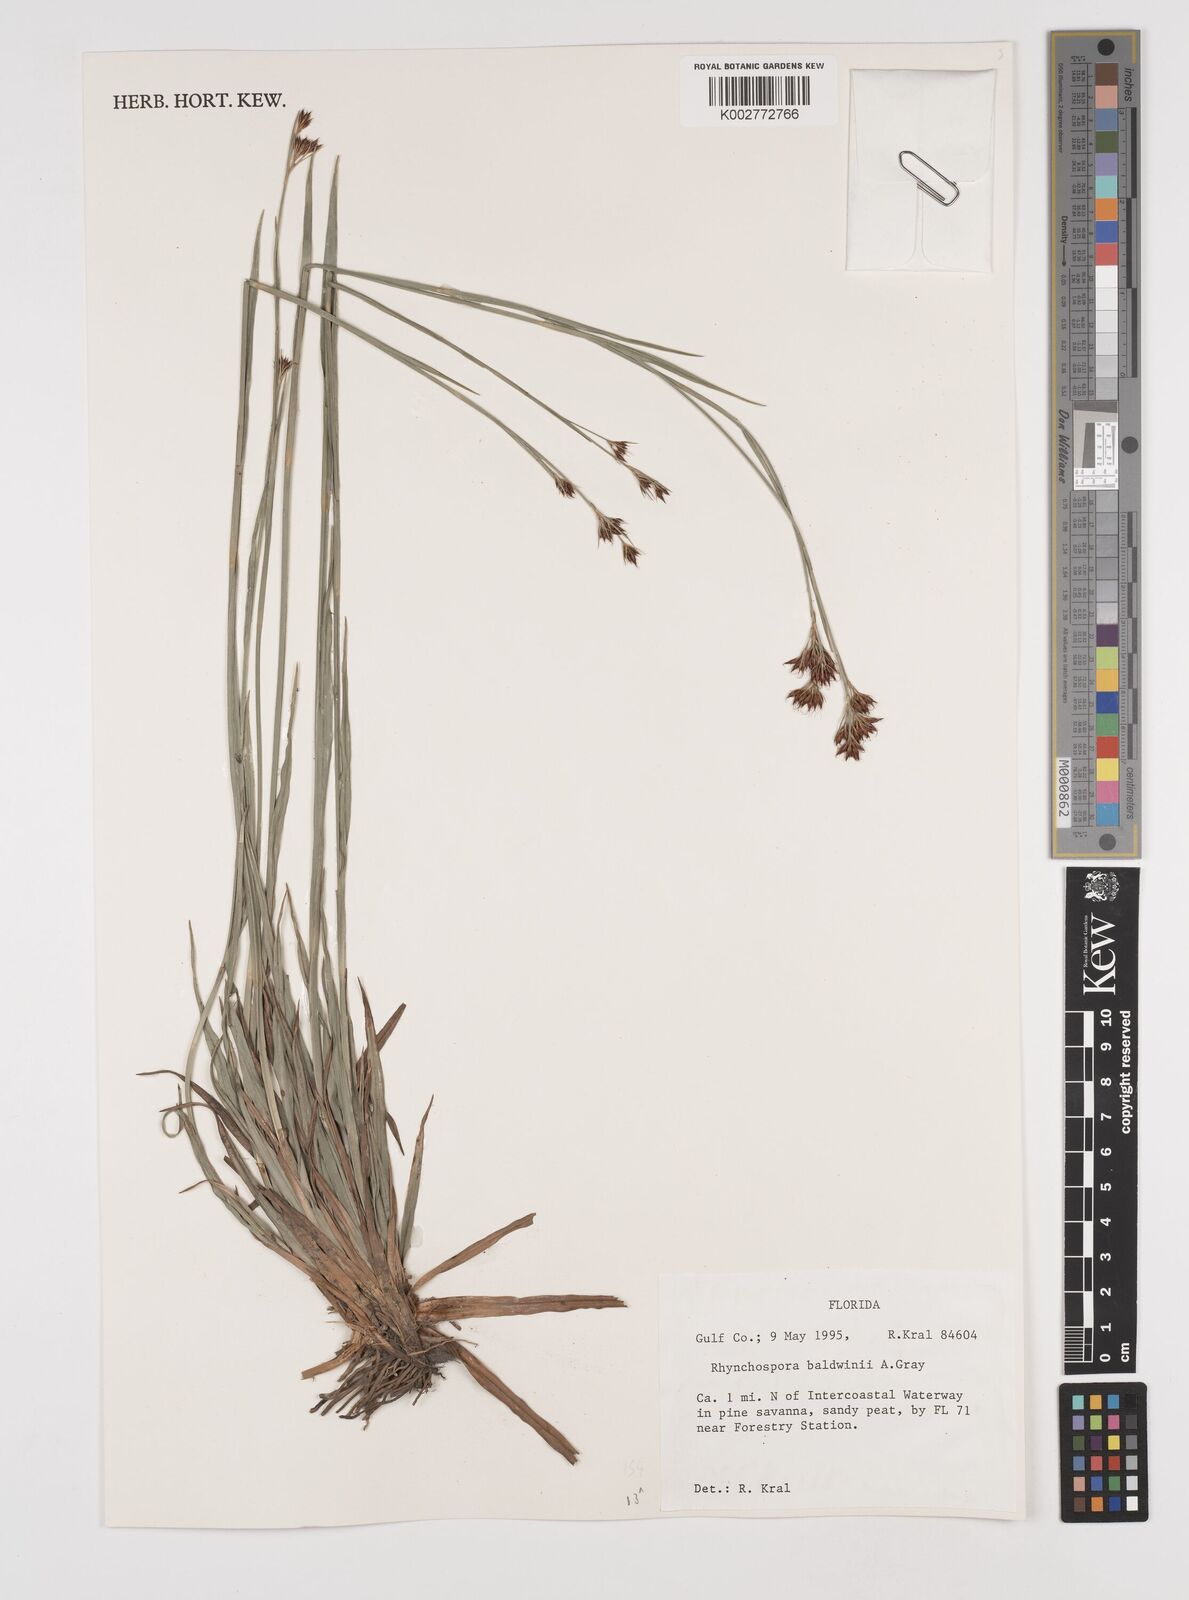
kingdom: Plantae
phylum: Tracheophyta
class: Liliopsida
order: Poales
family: Cyperaceae
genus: Rhynchospora
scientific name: Rhynchospora baldwinii
